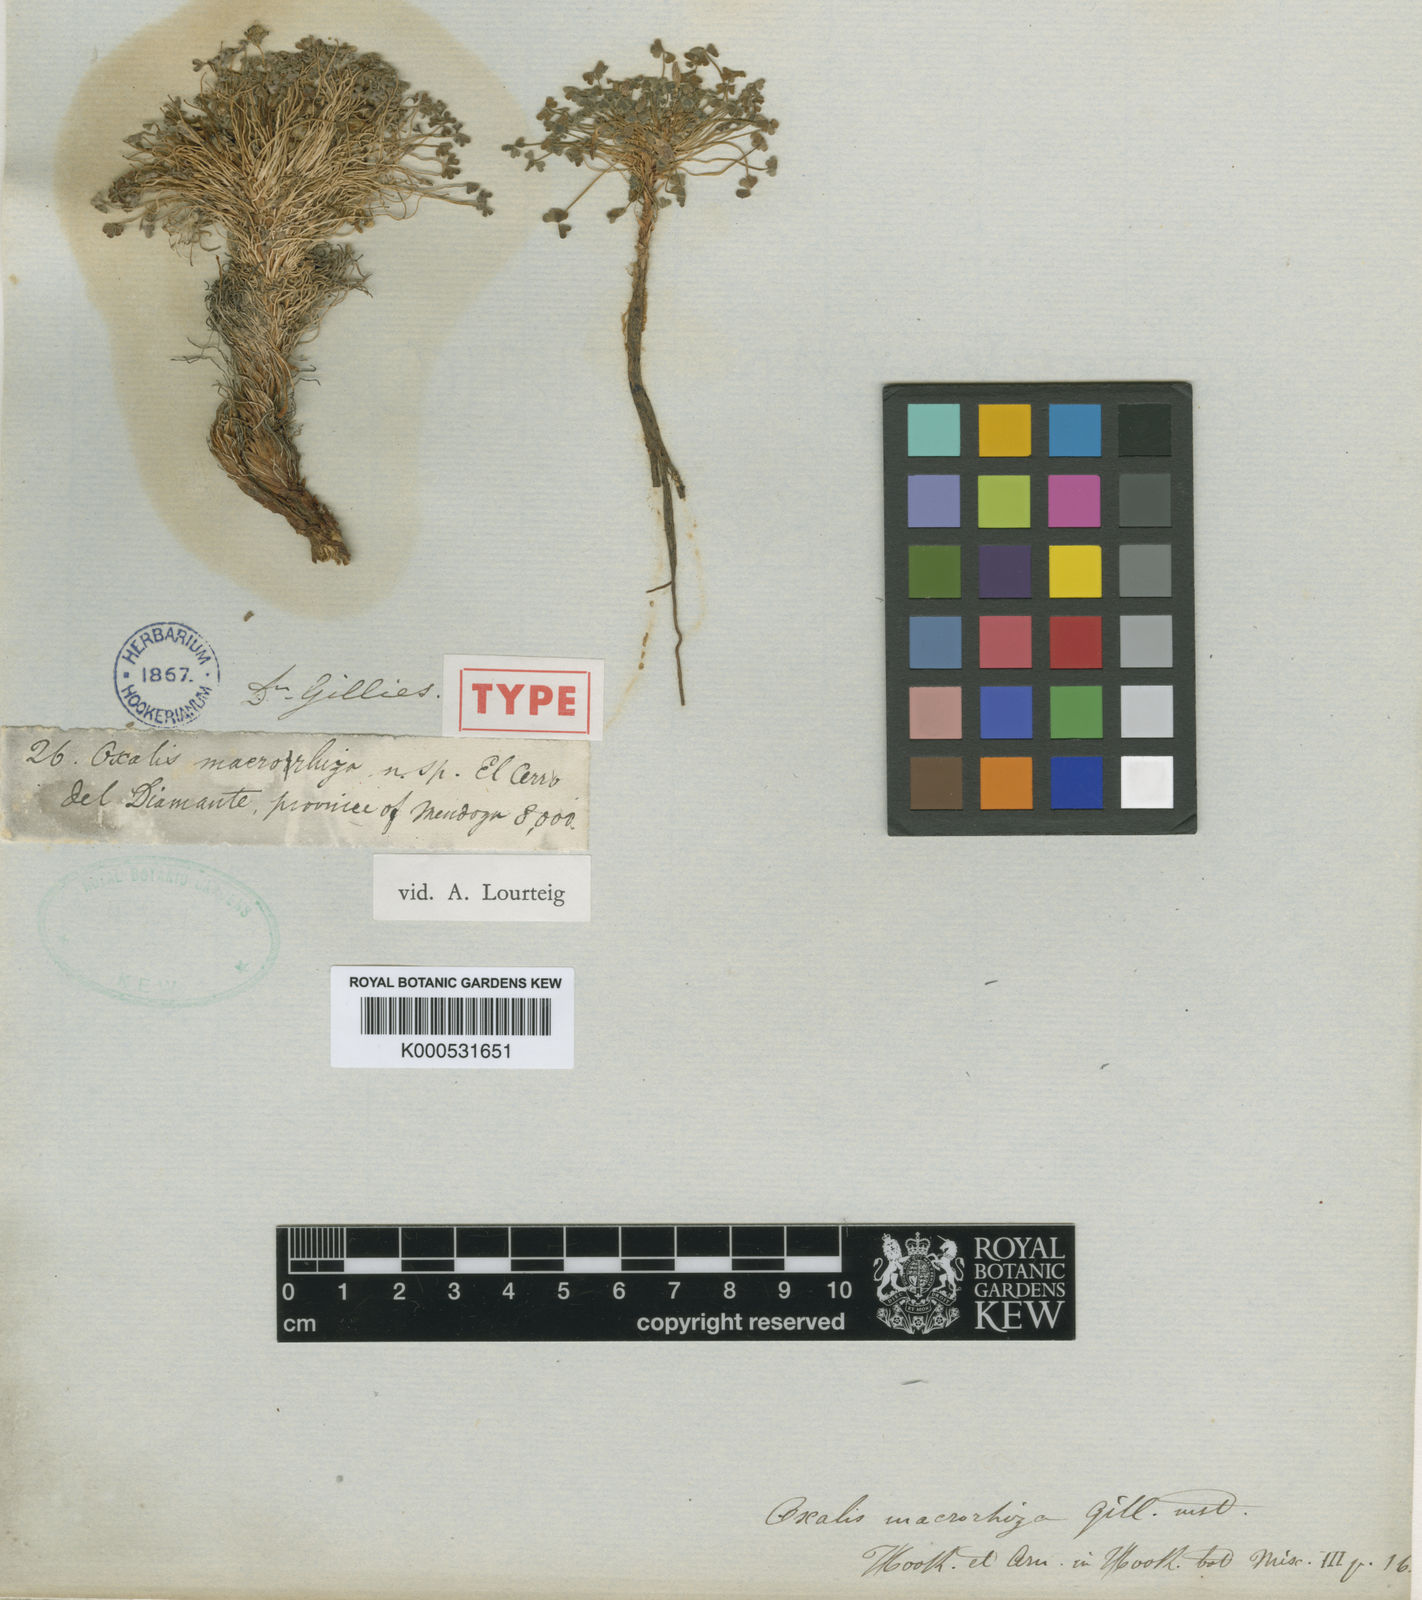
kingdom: Plantae
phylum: Tracheophyta
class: Magnoliopsida
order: Oxalidales
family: Oxalidaceae
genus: Oxalis
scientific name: Oxalis compacta
